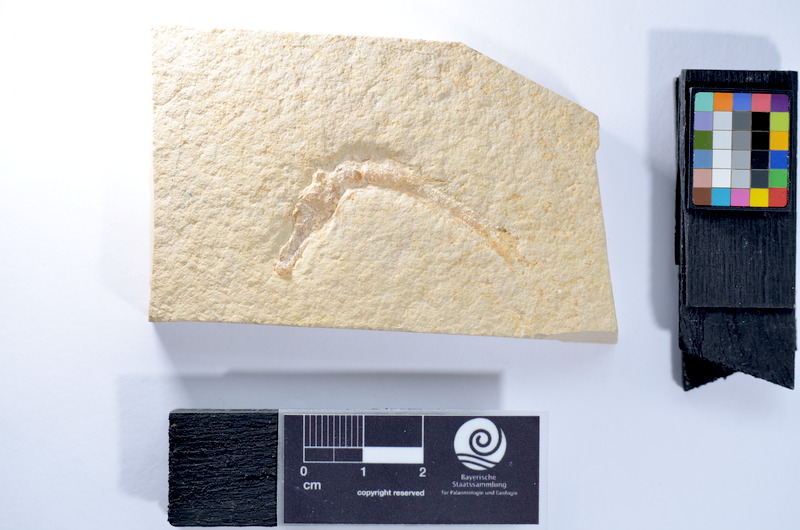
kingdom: Animalia
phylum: Chordata
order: Salmoniformes
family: Orthogonikleithridae
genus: Leptolepides
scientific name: Leptolepides
